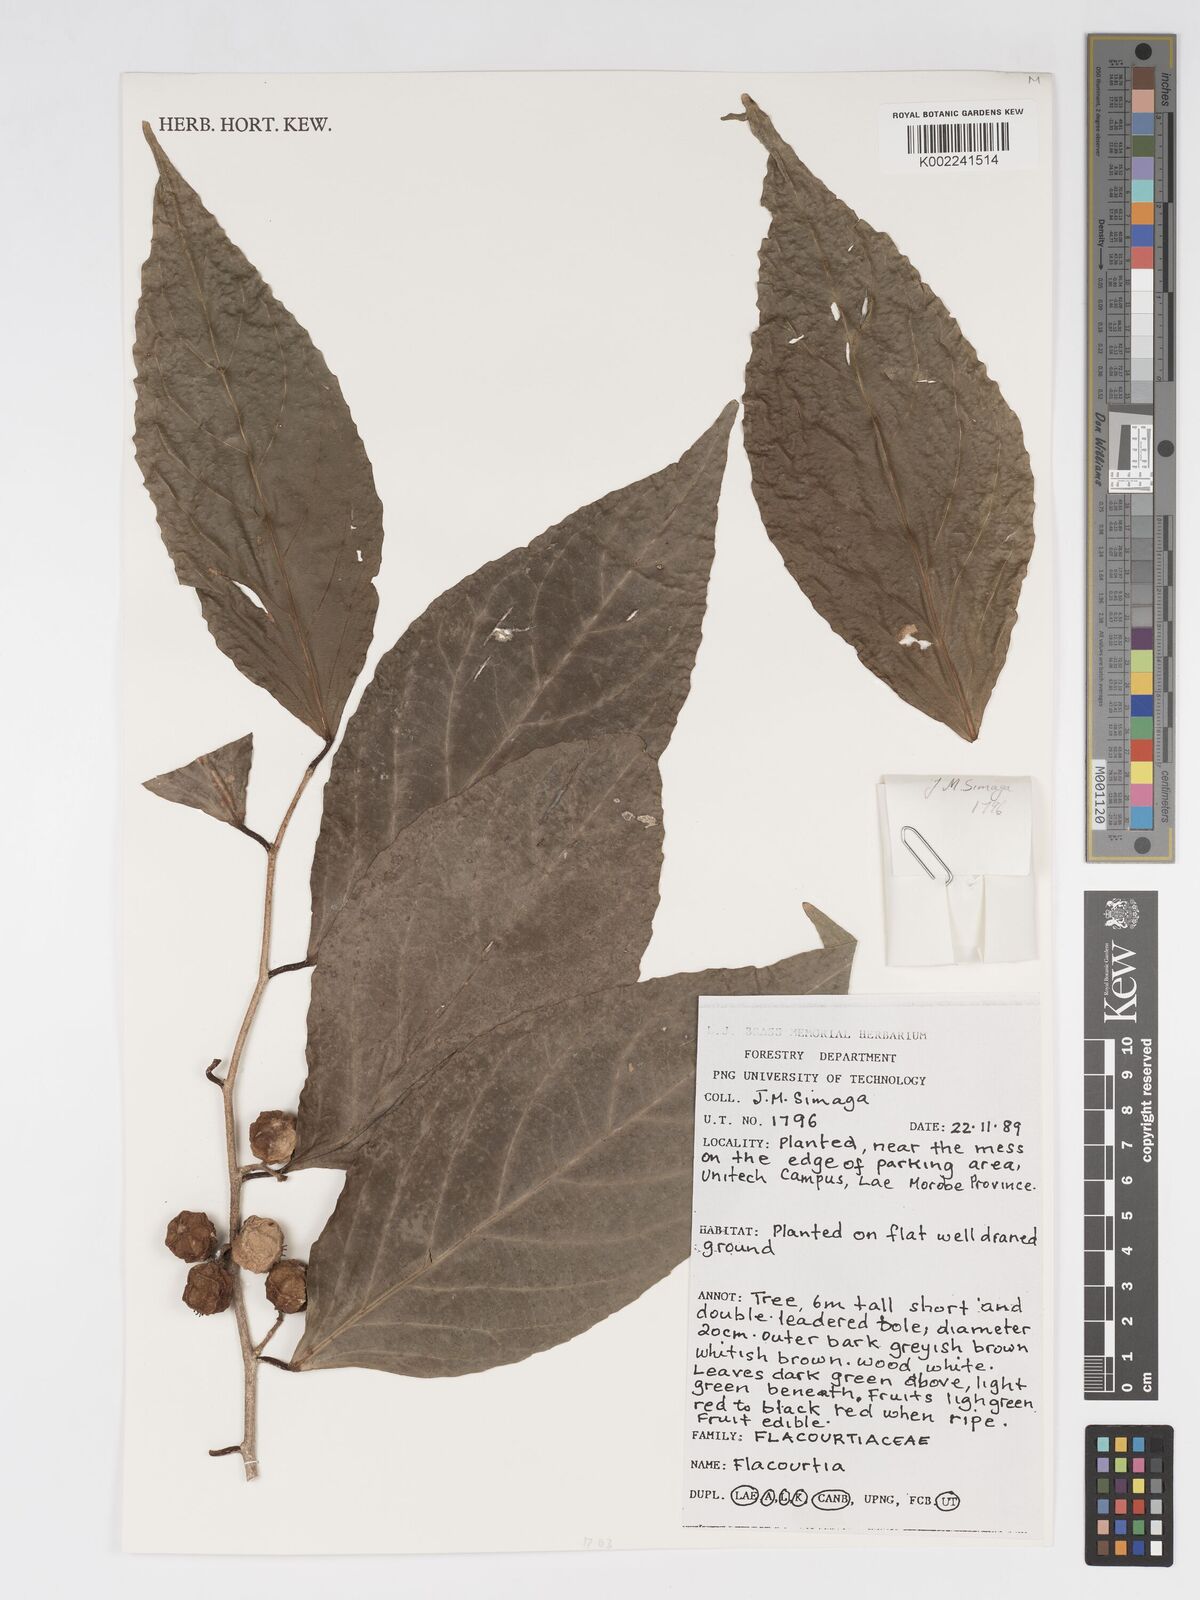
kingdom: Plantae
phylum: Tracheophyta
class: Magnoliopsida
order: Malpighiales
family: Salicaceae
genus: Flacourtia
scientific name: Flacourtia
